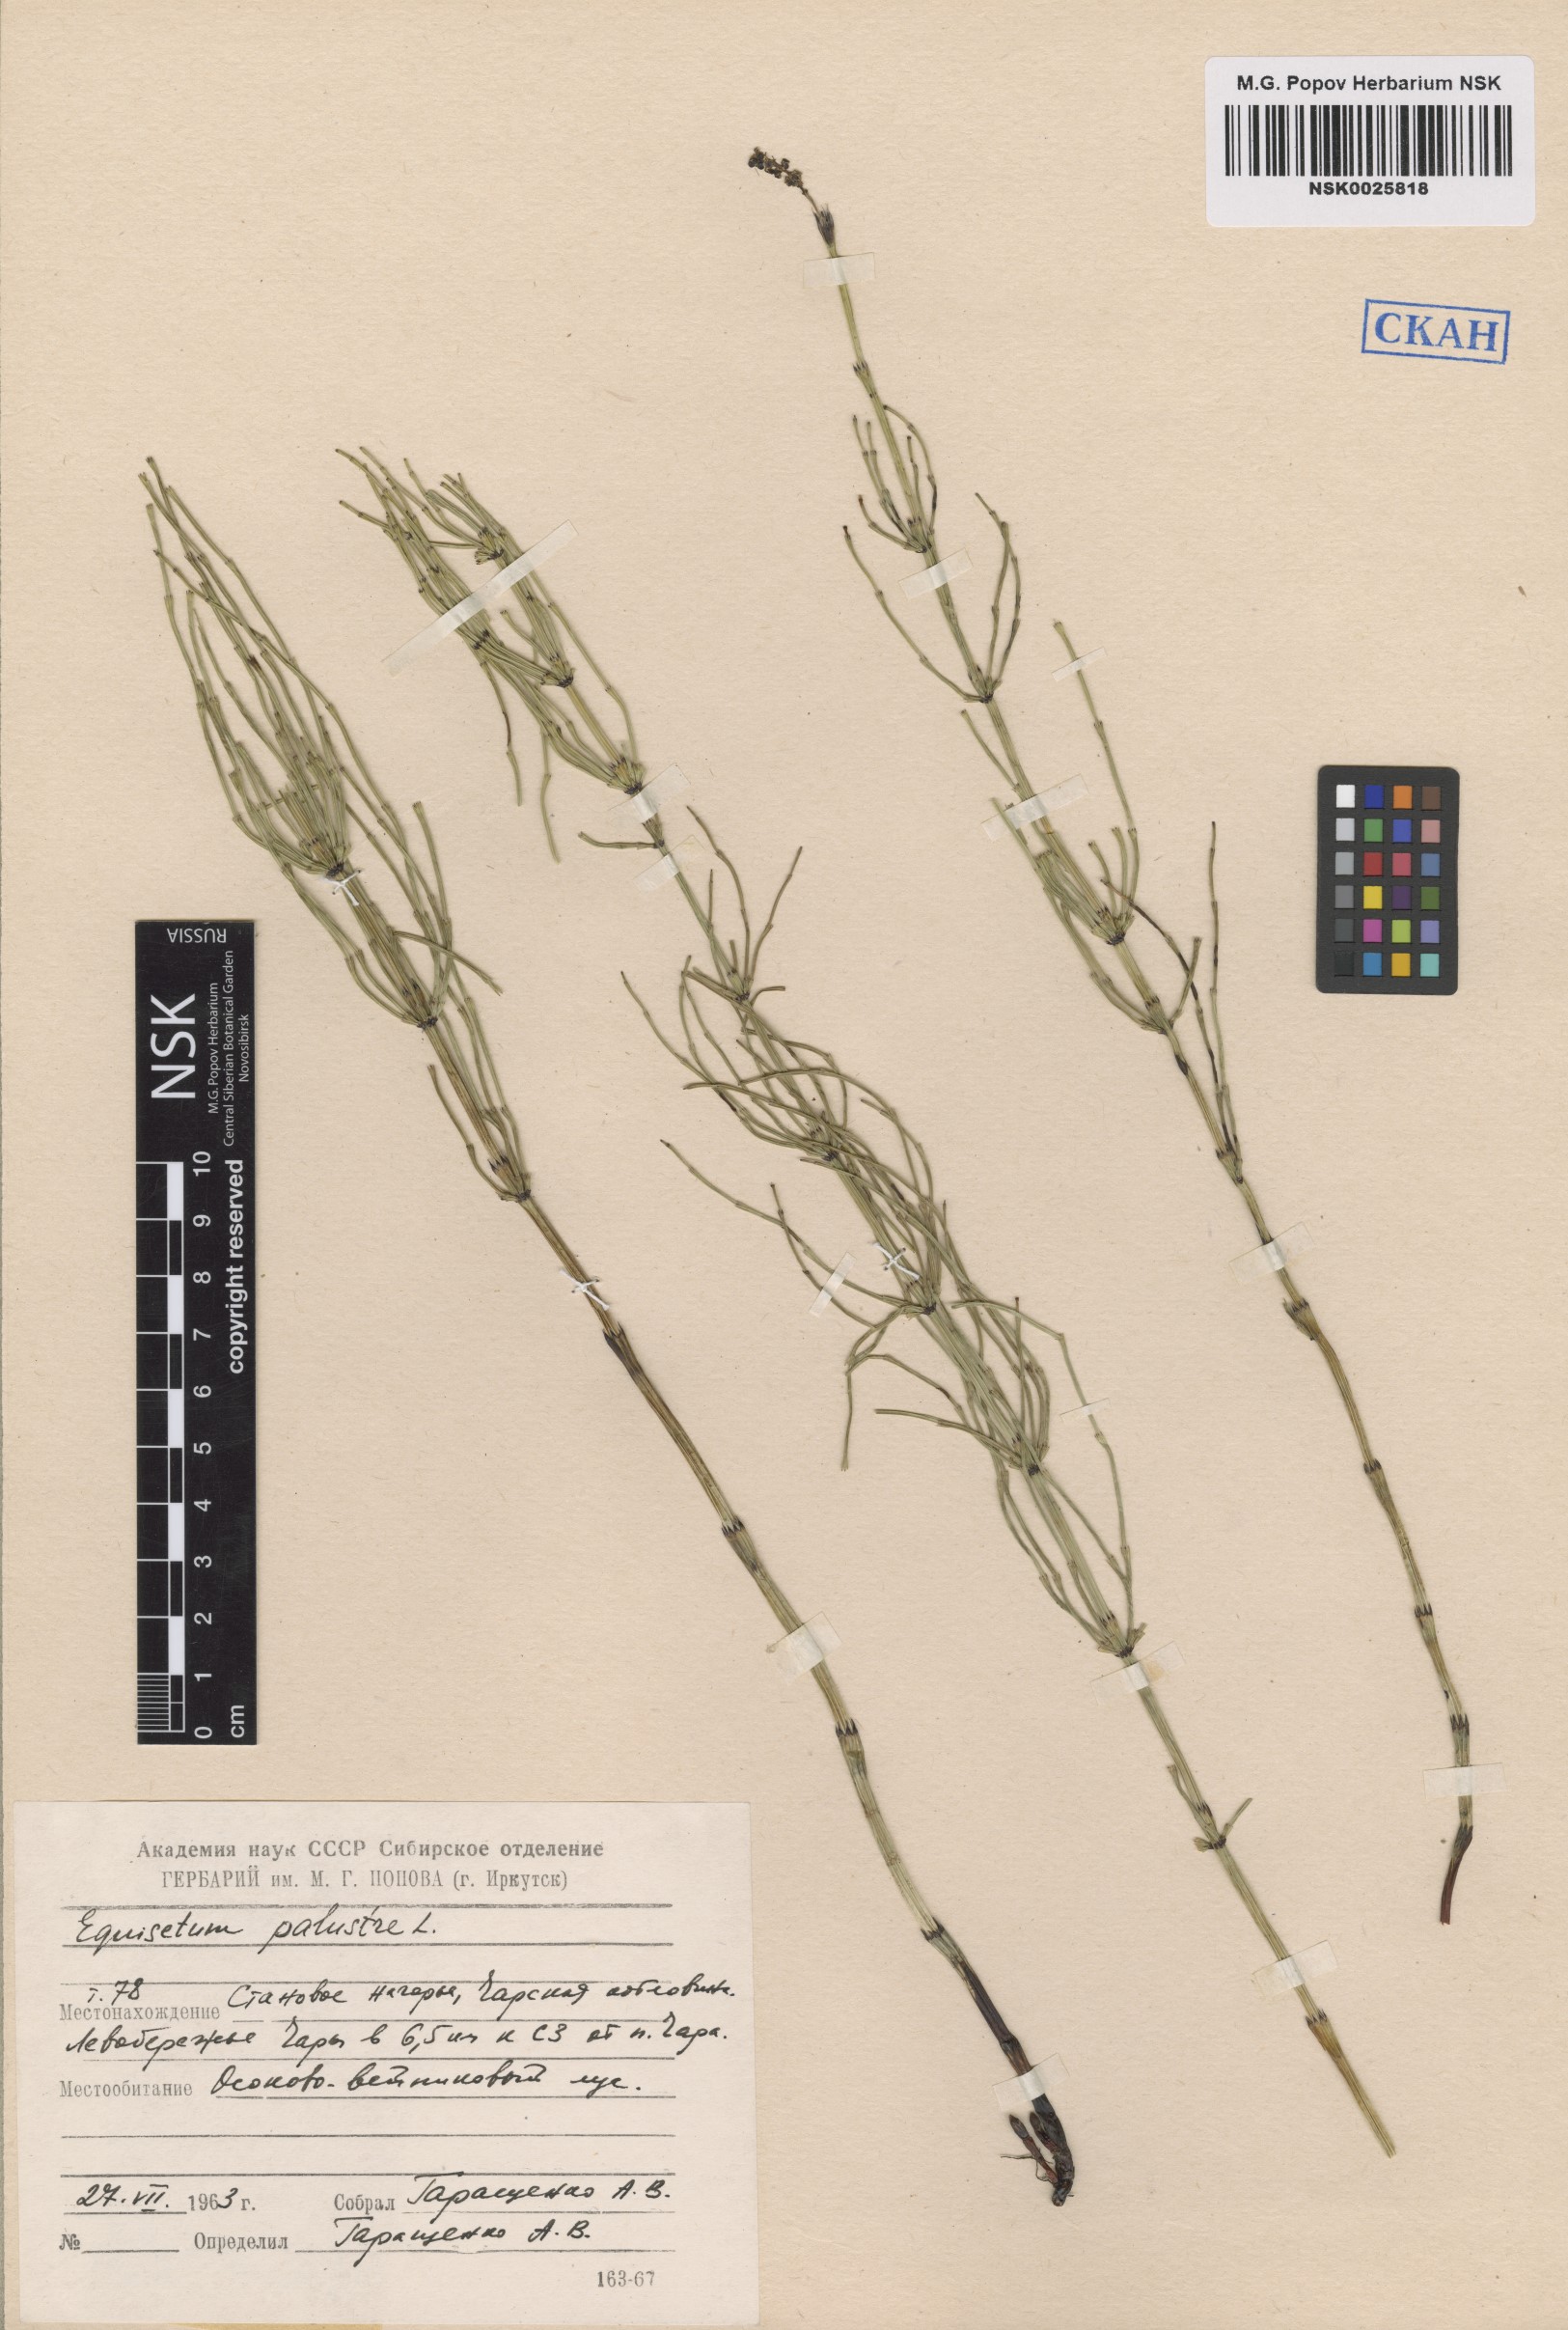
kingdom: Plantae
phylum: Tracheophyta
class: Polypodiopsida
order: Equisetales
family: Equisetaceae
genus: Equisetum
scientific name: Equisetum palustre
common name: Marsh horsetail
